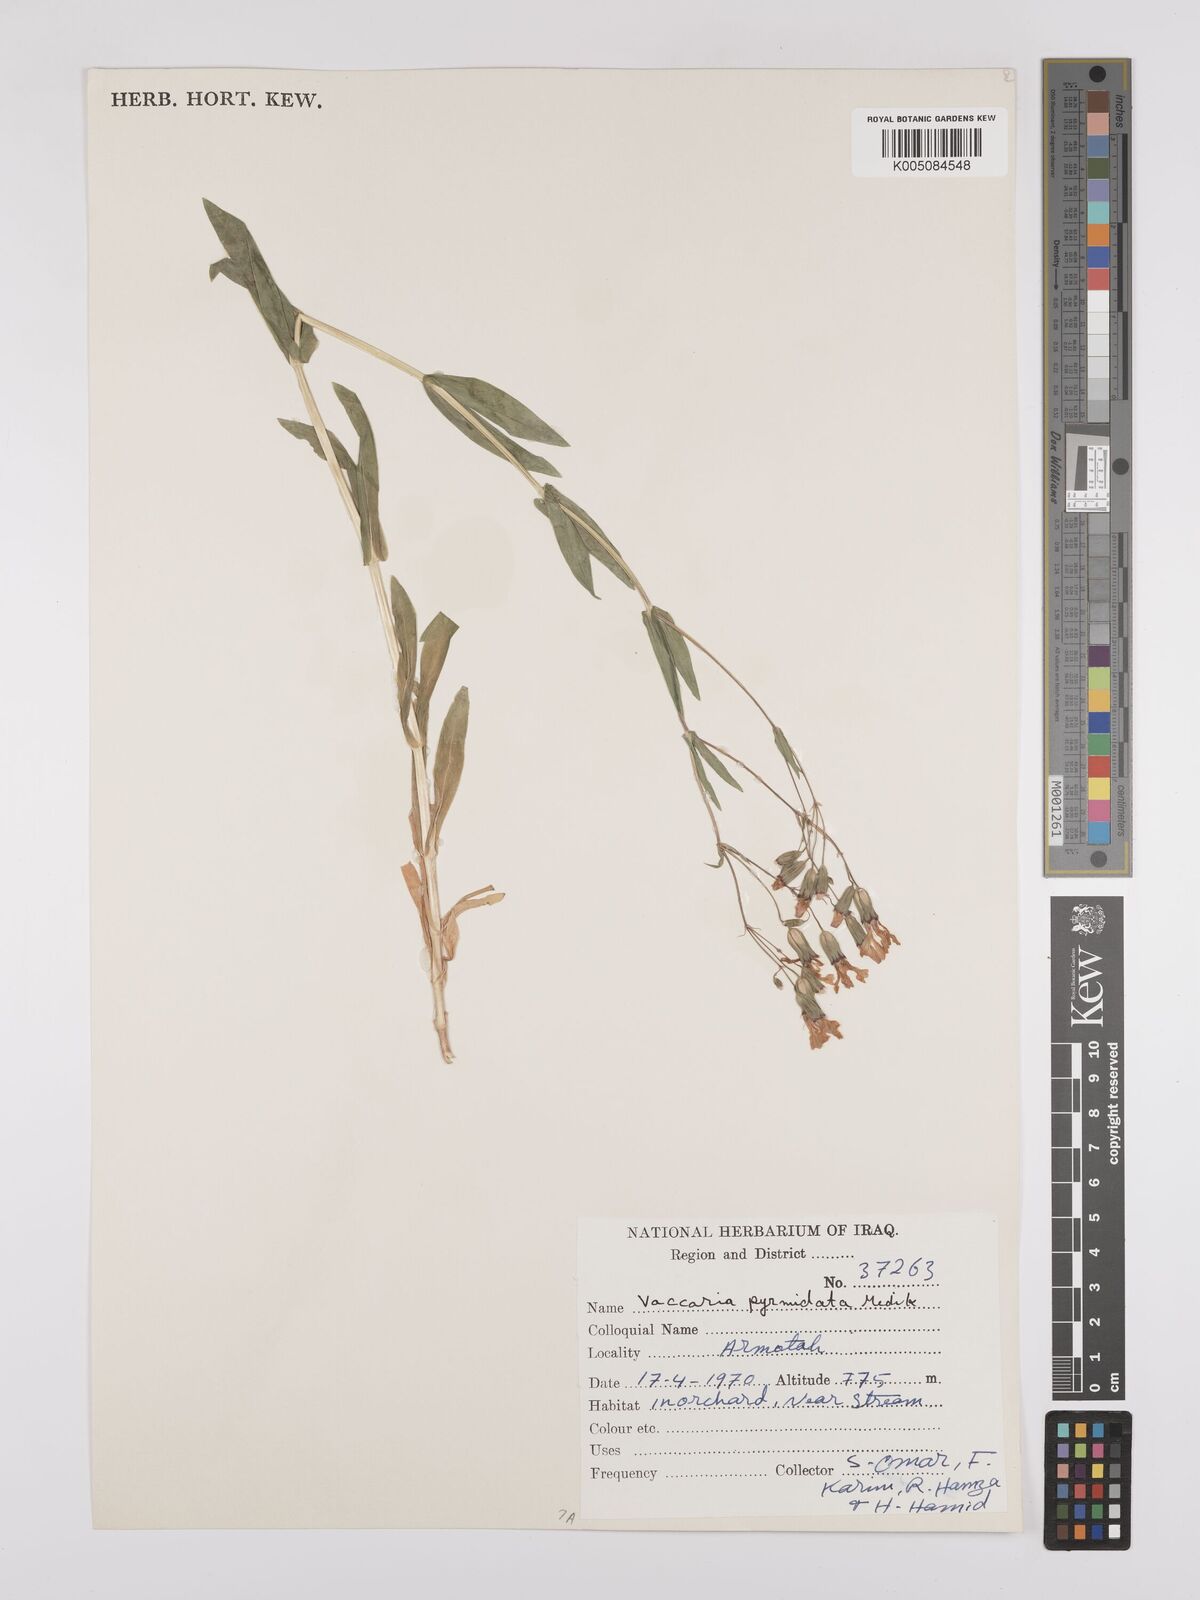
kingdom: Plantae
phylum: Tracheophyta
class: Magnoliopsida
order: Caryophyllales
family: Caryophyllaceae
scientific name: Caryophyllaceae
